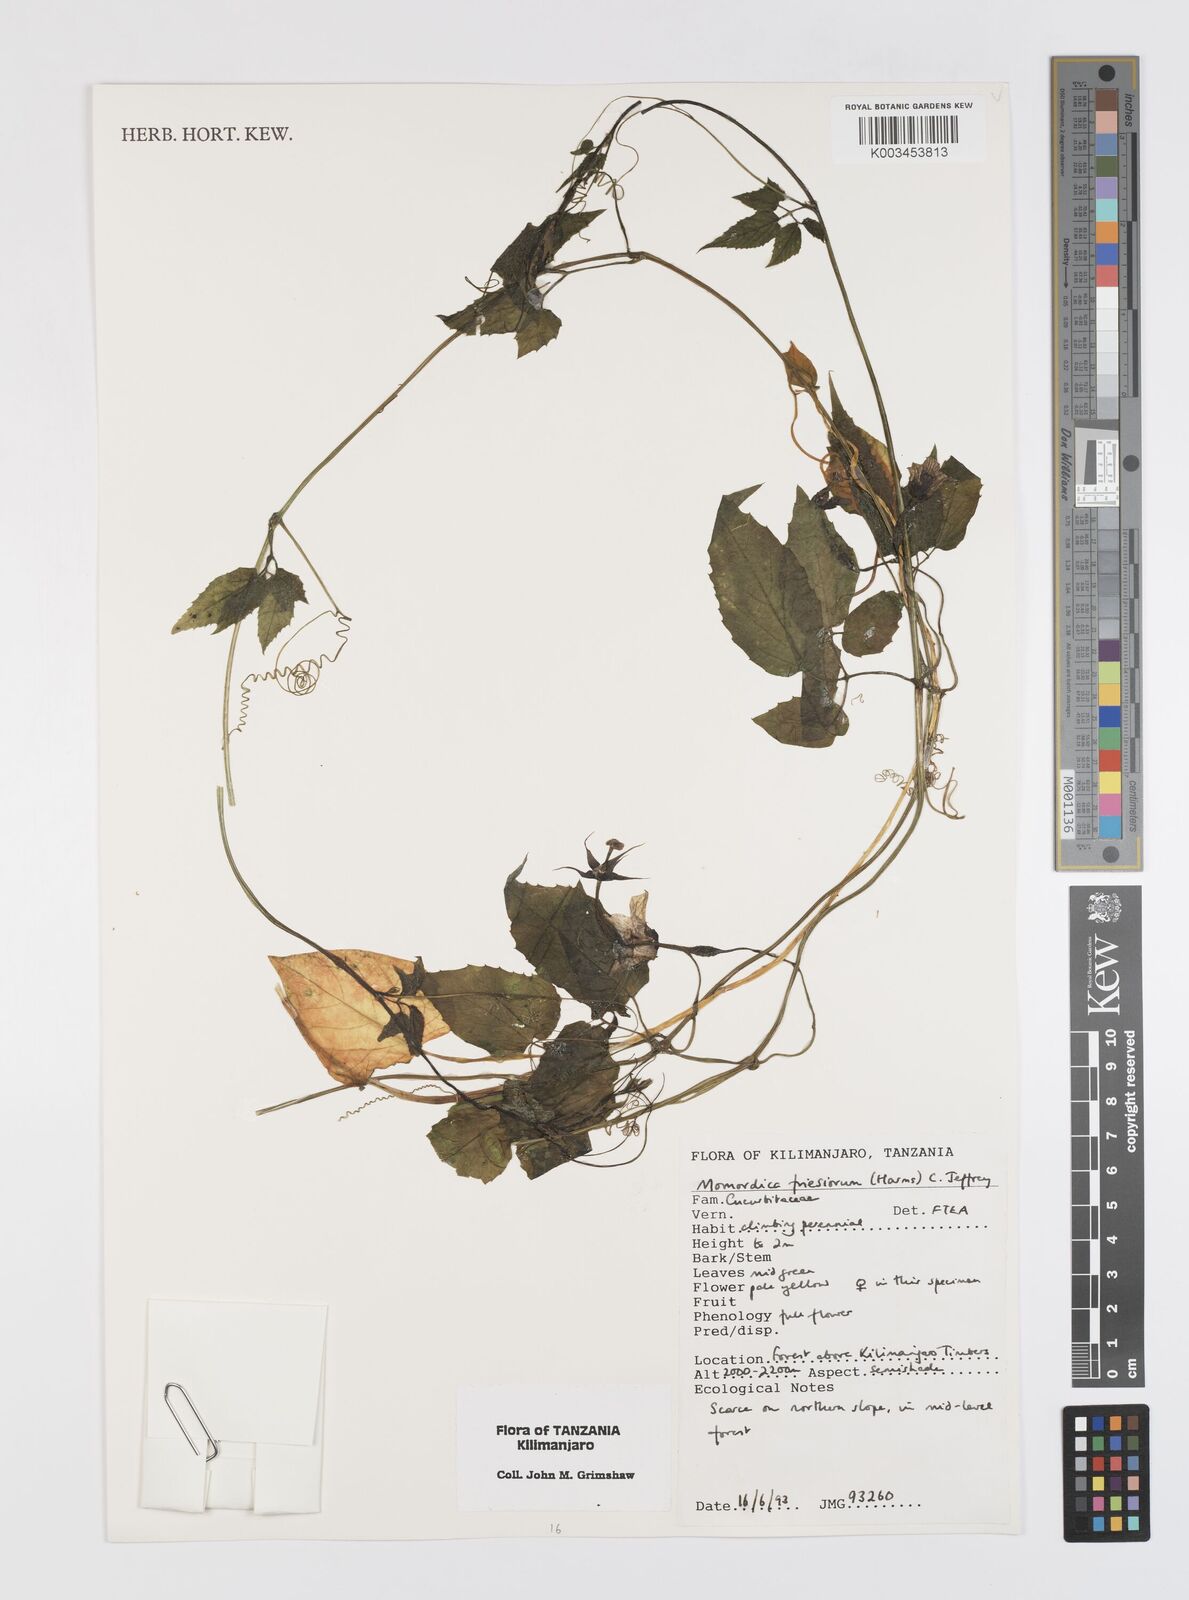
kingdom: Plantae
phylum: Tracheophyta
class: Magnoliopsida
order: Cucurbitales
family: Cucurbitaceae
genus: Momordica
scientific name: Momordica friesiorum
